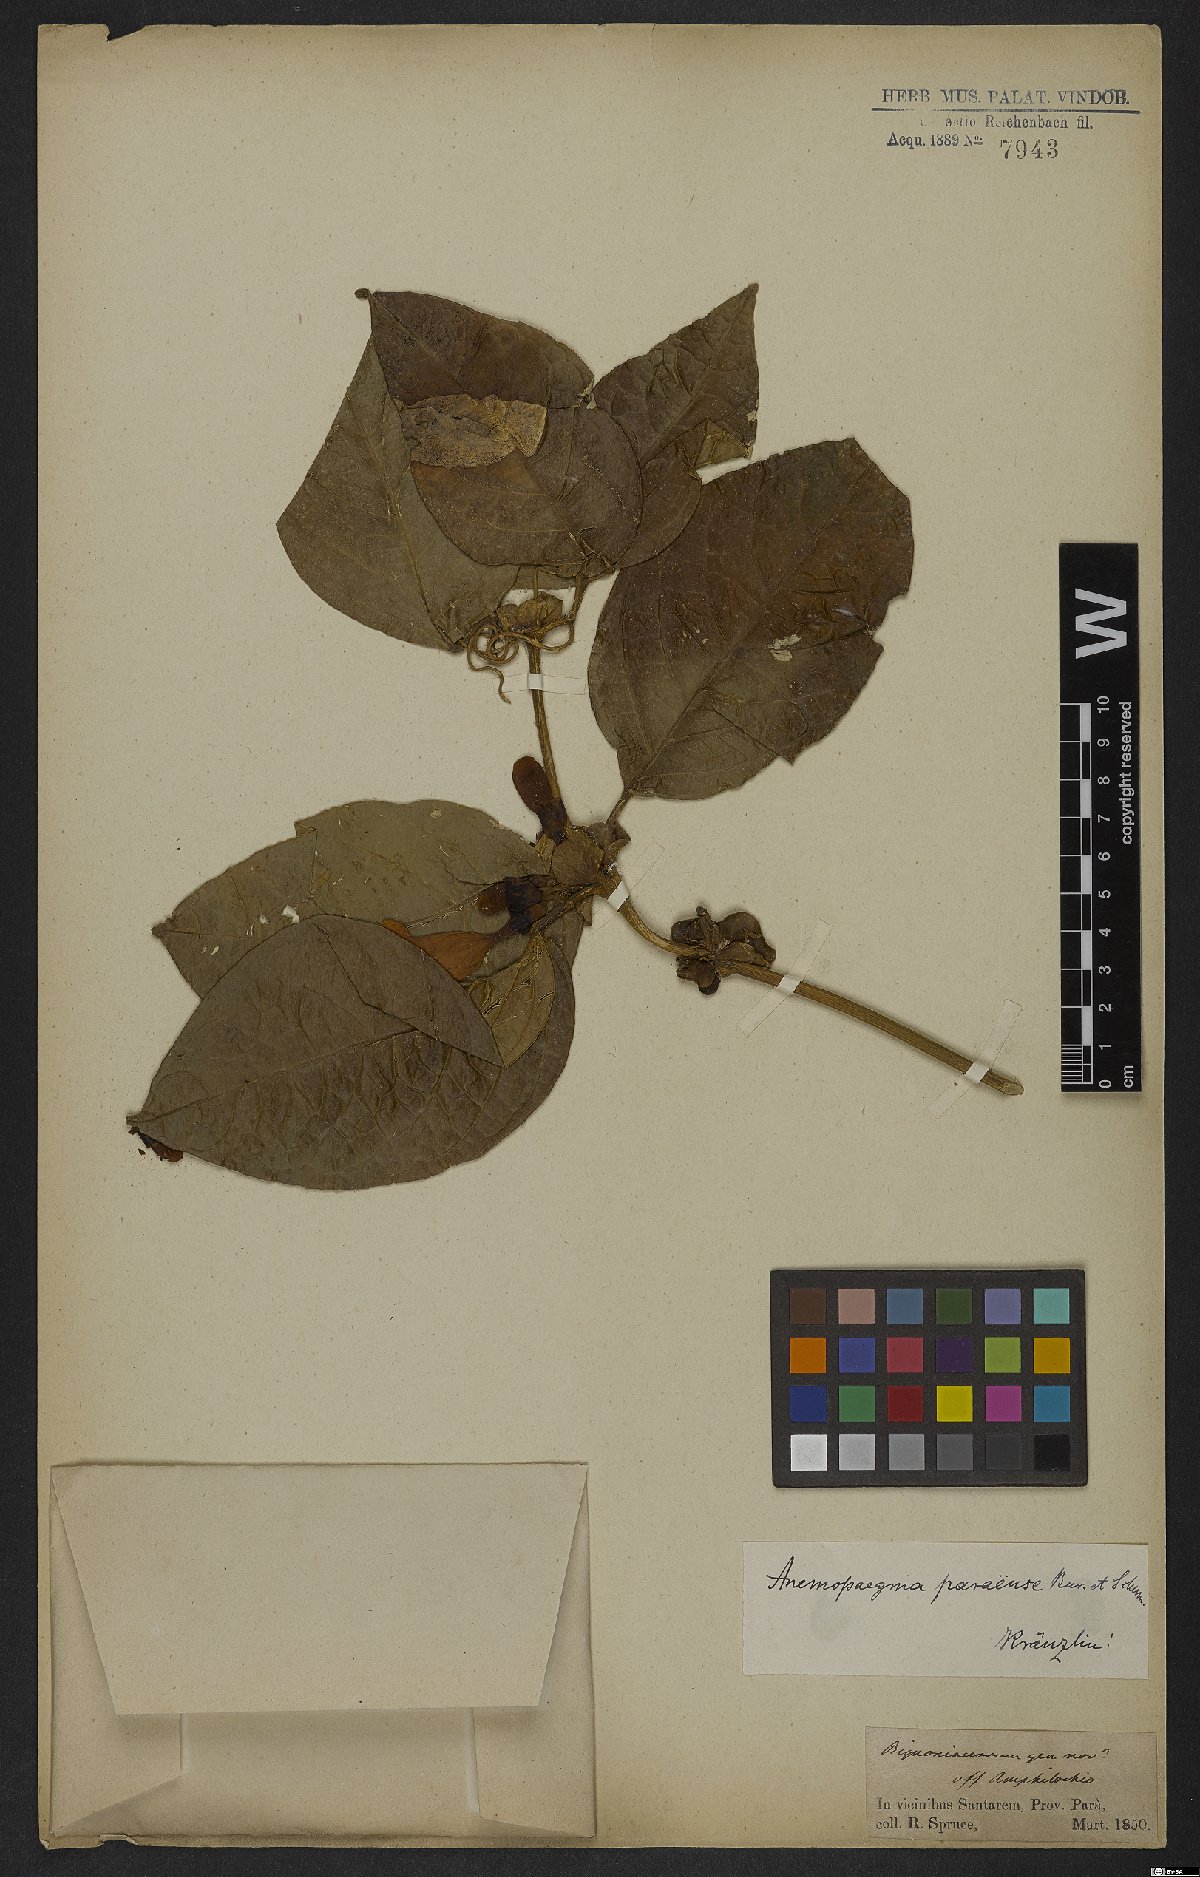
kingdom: Plantae
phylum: Tracheophyta
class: Magnoliopsida
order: Lamiales
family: Bignoniaceae
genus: Anemopaegma
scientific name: Anemopaegma paraense
